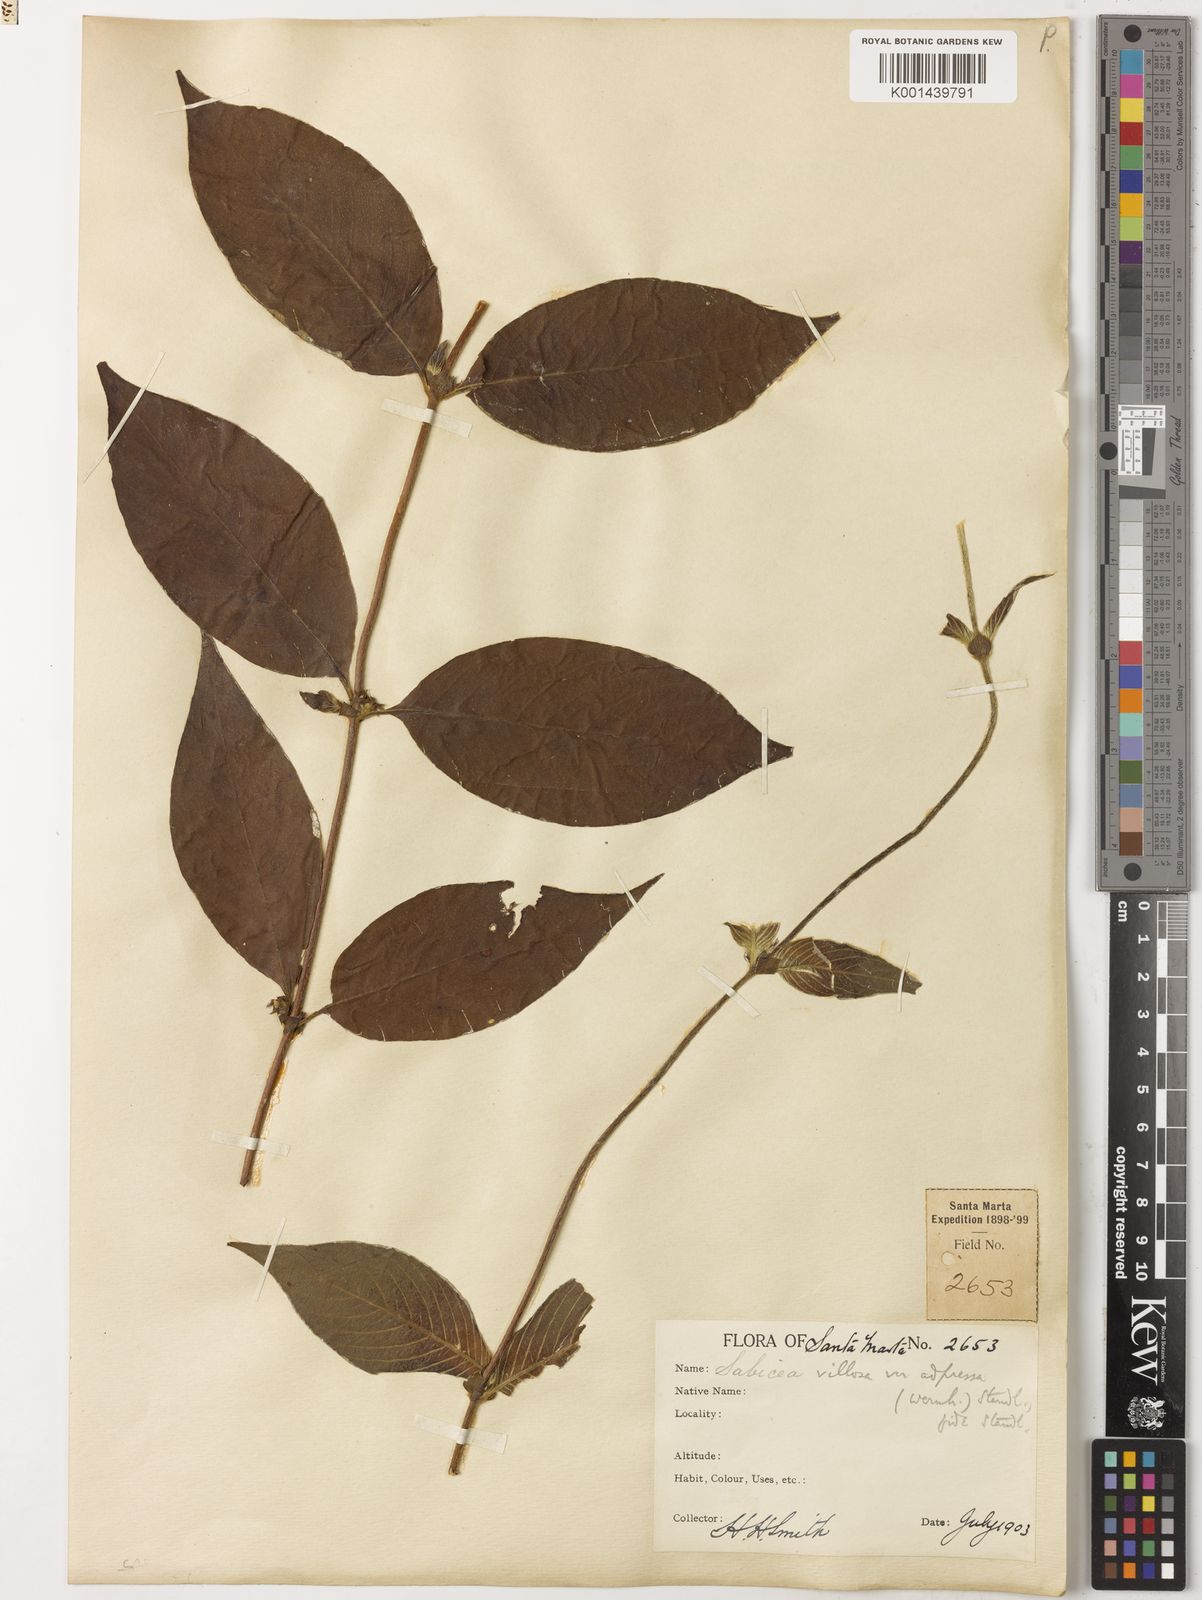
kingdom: Plantae
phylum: Tracheophyta
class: Magnoliopsida
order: Gentianales
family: Rubiaceae
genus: Sabicea
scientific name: Sabicea villosa
